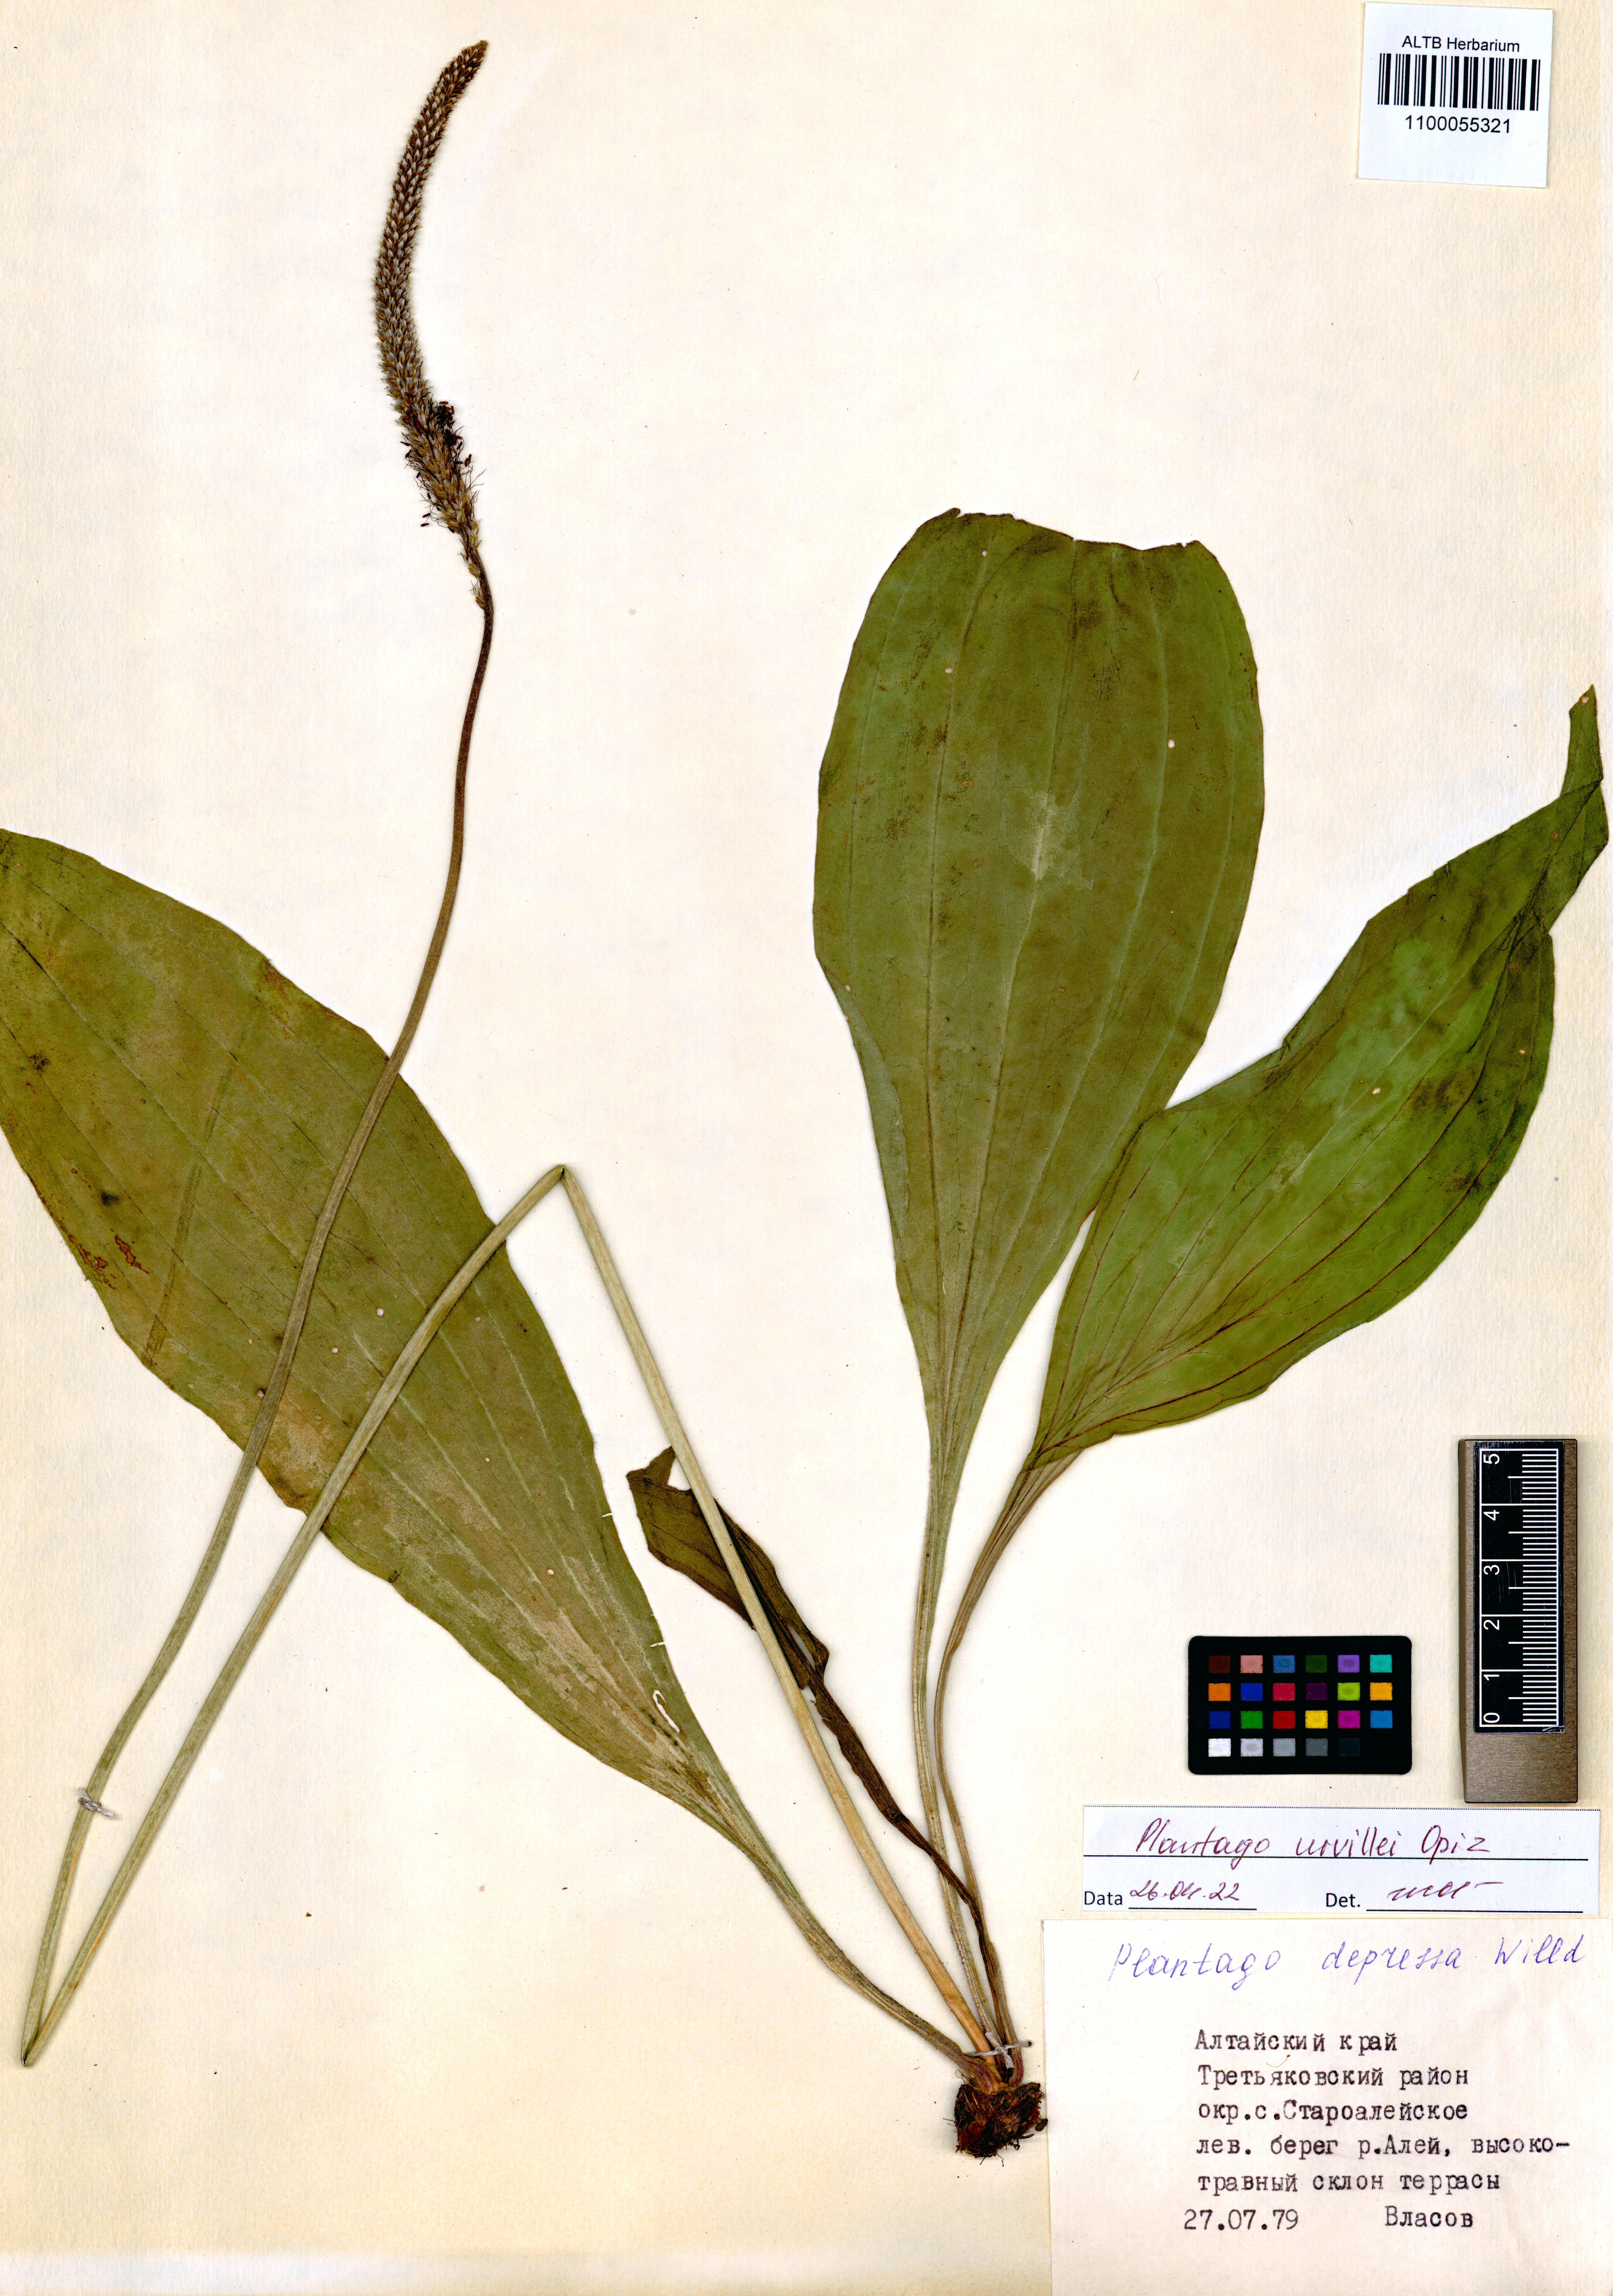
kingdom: Plantae
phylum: Tracheophyta
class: Magnoliopsida
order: Lamiales
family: Plantaginaceae
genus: Plantago
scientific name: Plantago urvillei
